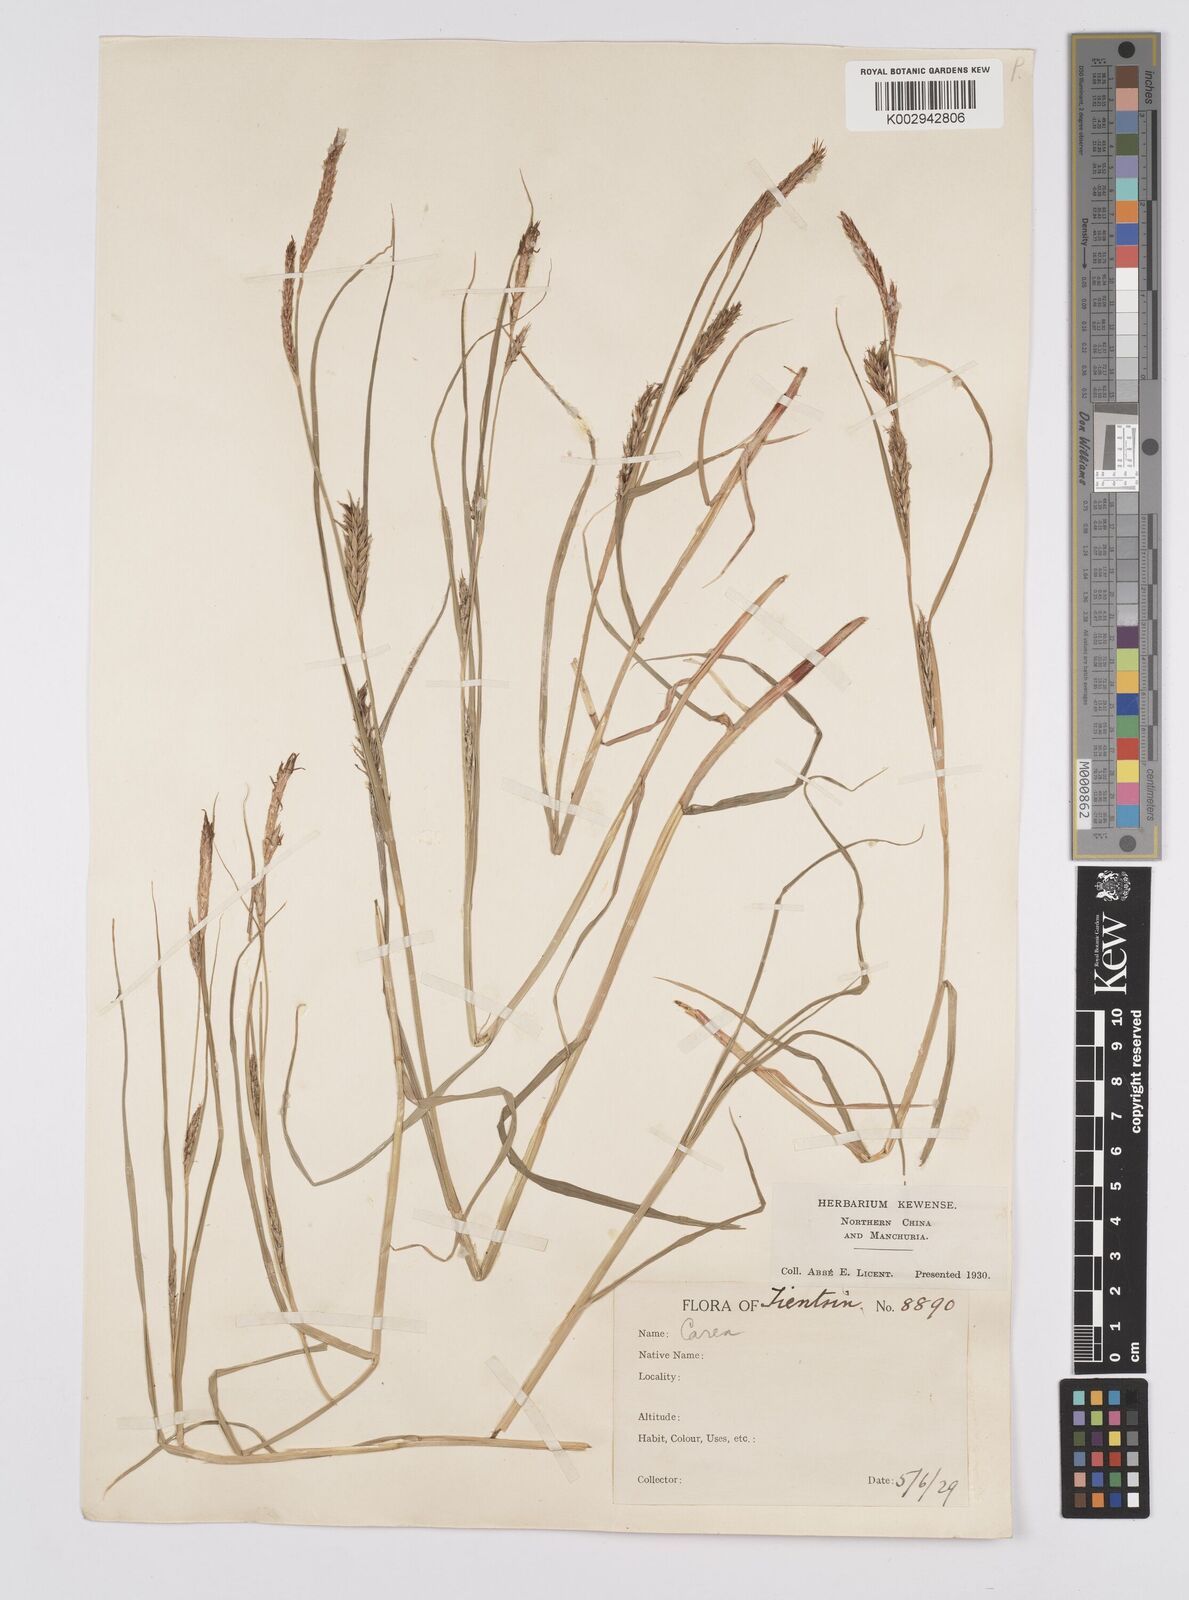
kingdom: Plantae
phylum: Tracheophyta
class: Liliopsida
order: Poales
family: Cyperaceae
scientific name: Cyperaceae
